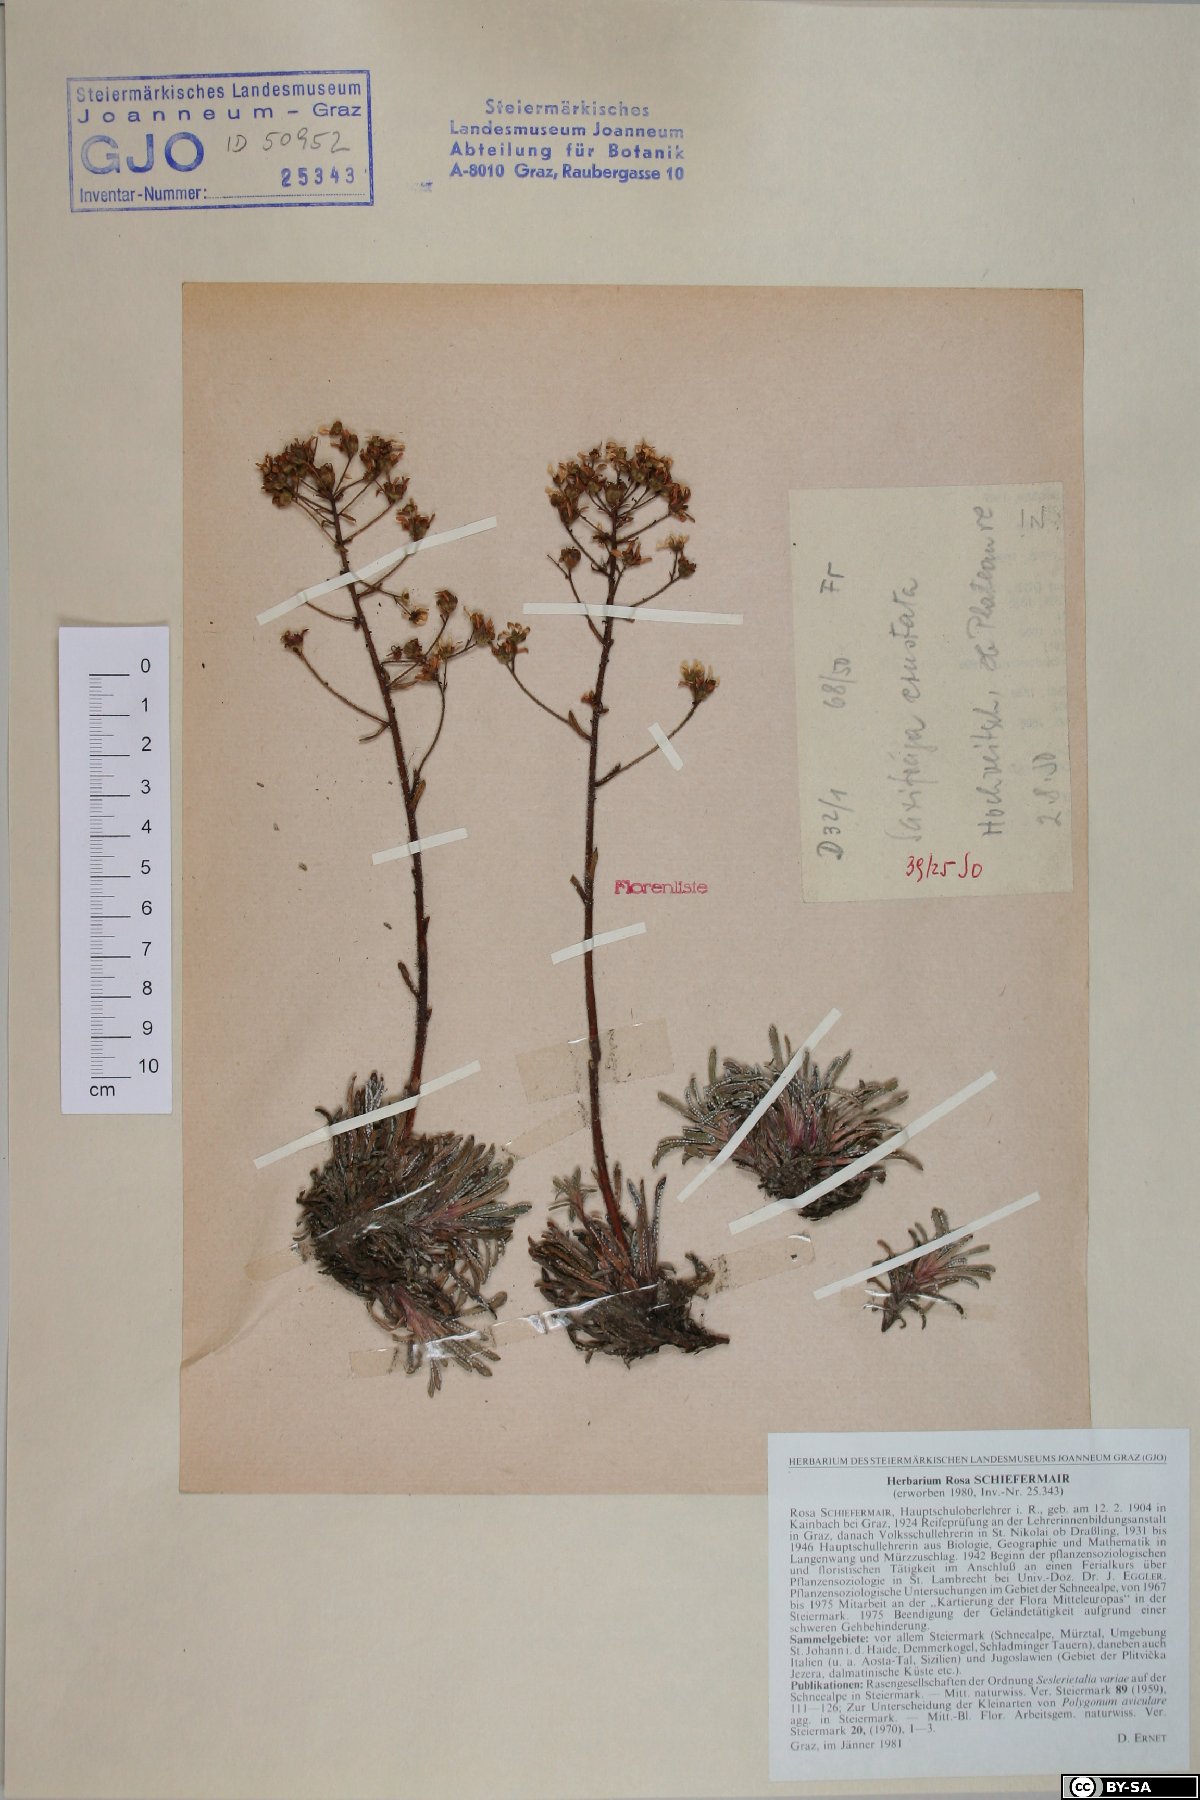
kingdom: Plantae
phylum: Tracheophyta
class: Magnoliopsida
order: Saxifragales
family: Saxifragaceae
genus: Saxifraga
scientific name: Saxifraga crustata
